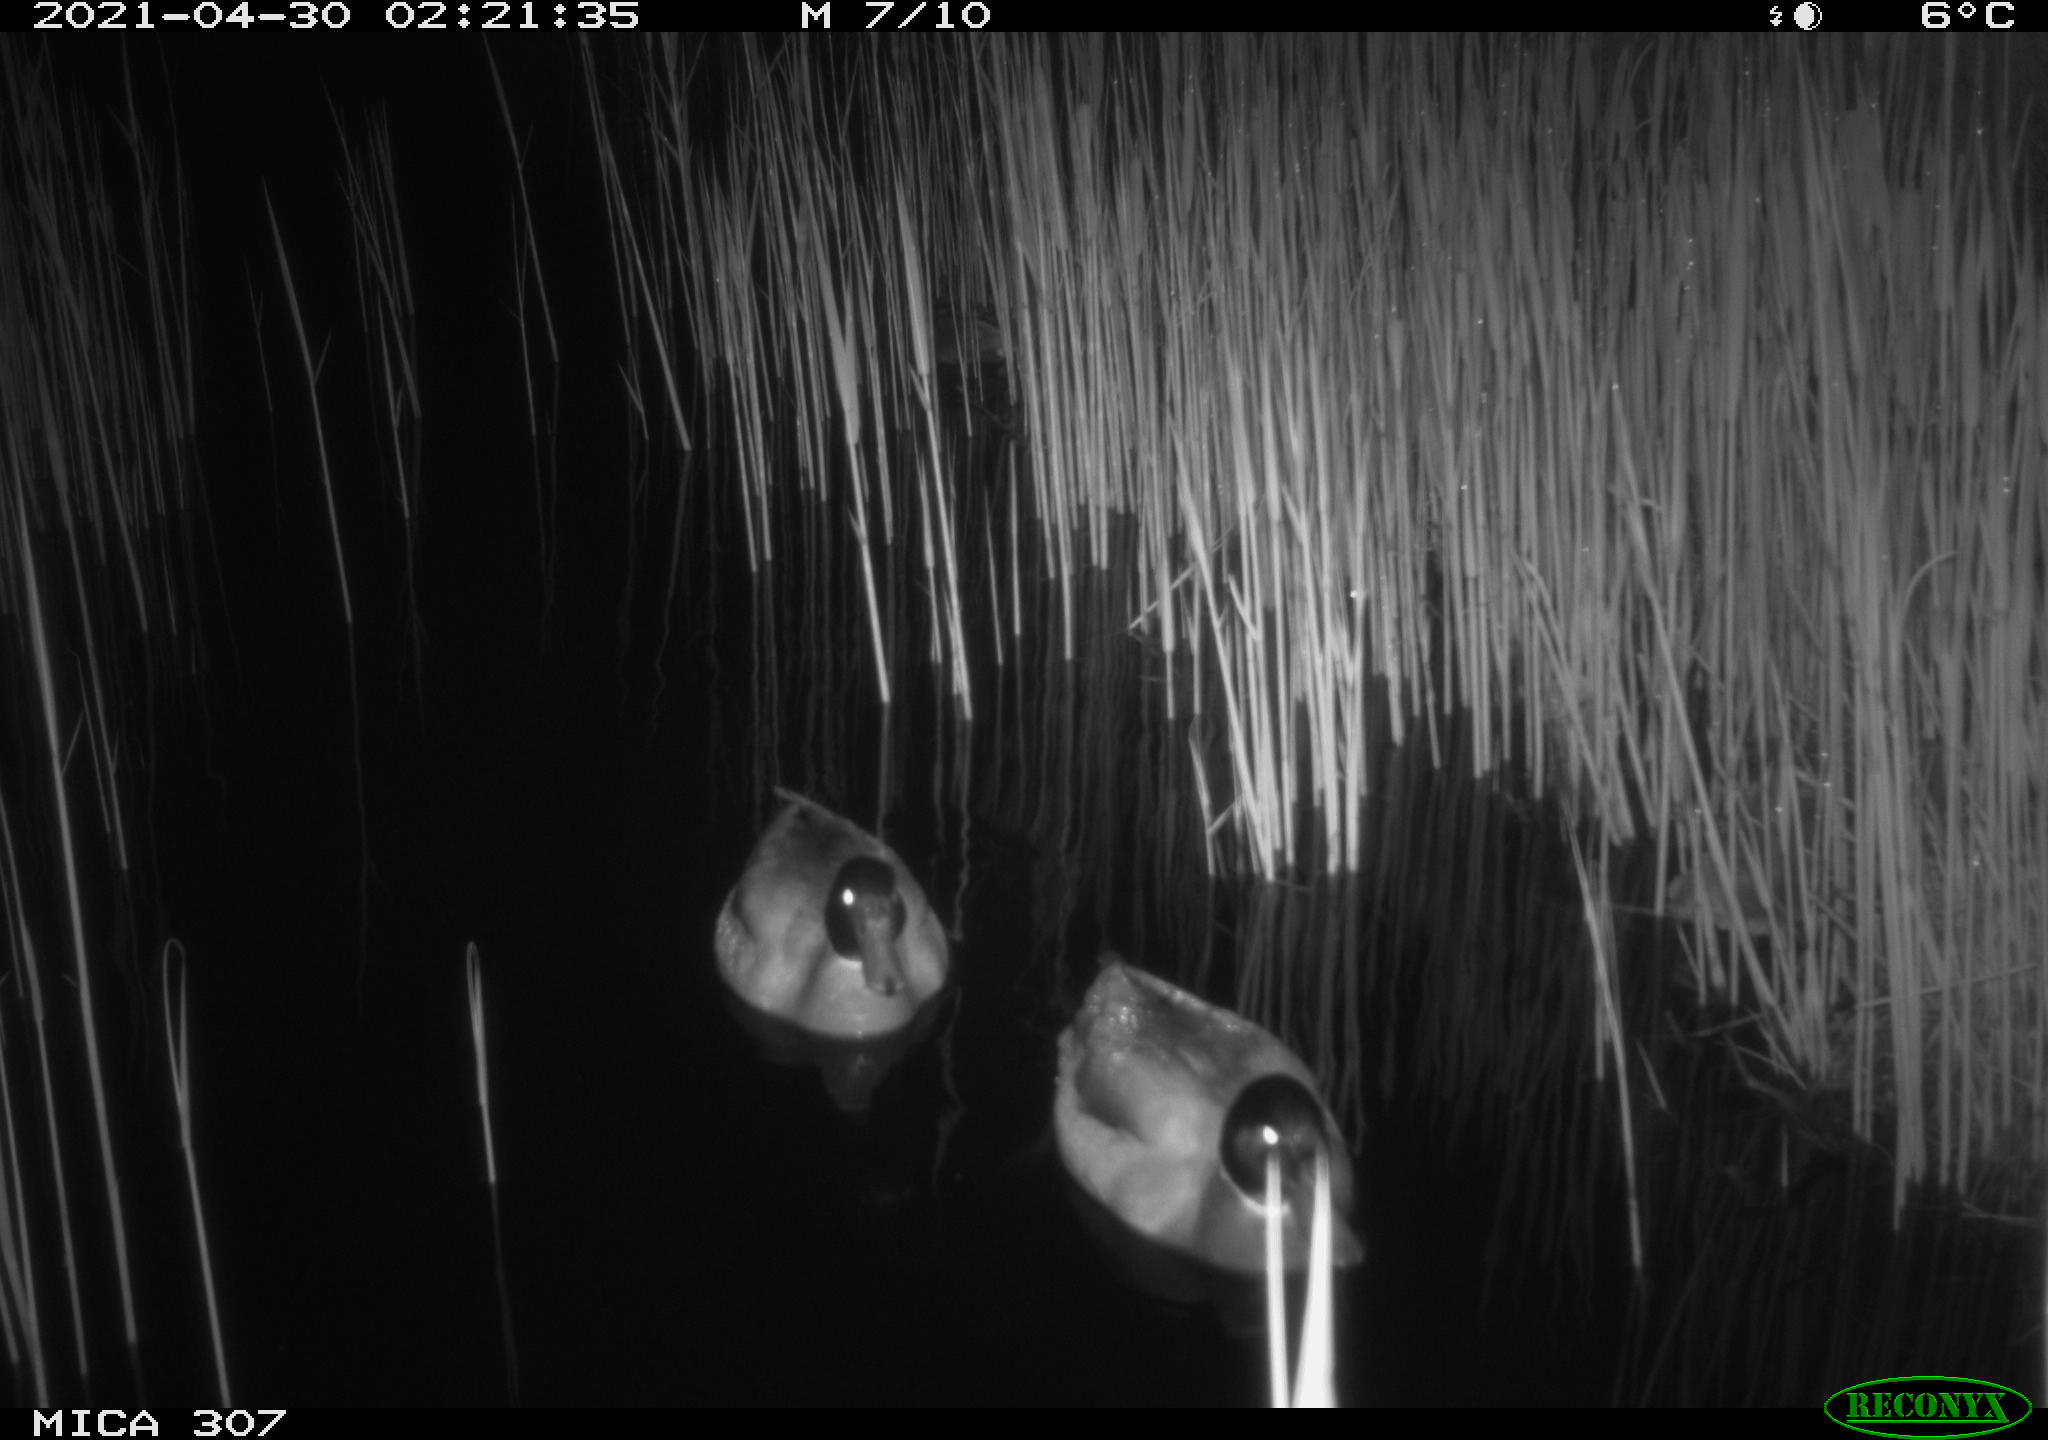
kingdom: Animalia
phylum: Chordata
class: Aves
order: Gruiformes
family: Rallidae
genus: Gallinula
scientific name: Gallinula chloropus
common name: Common moorhen
